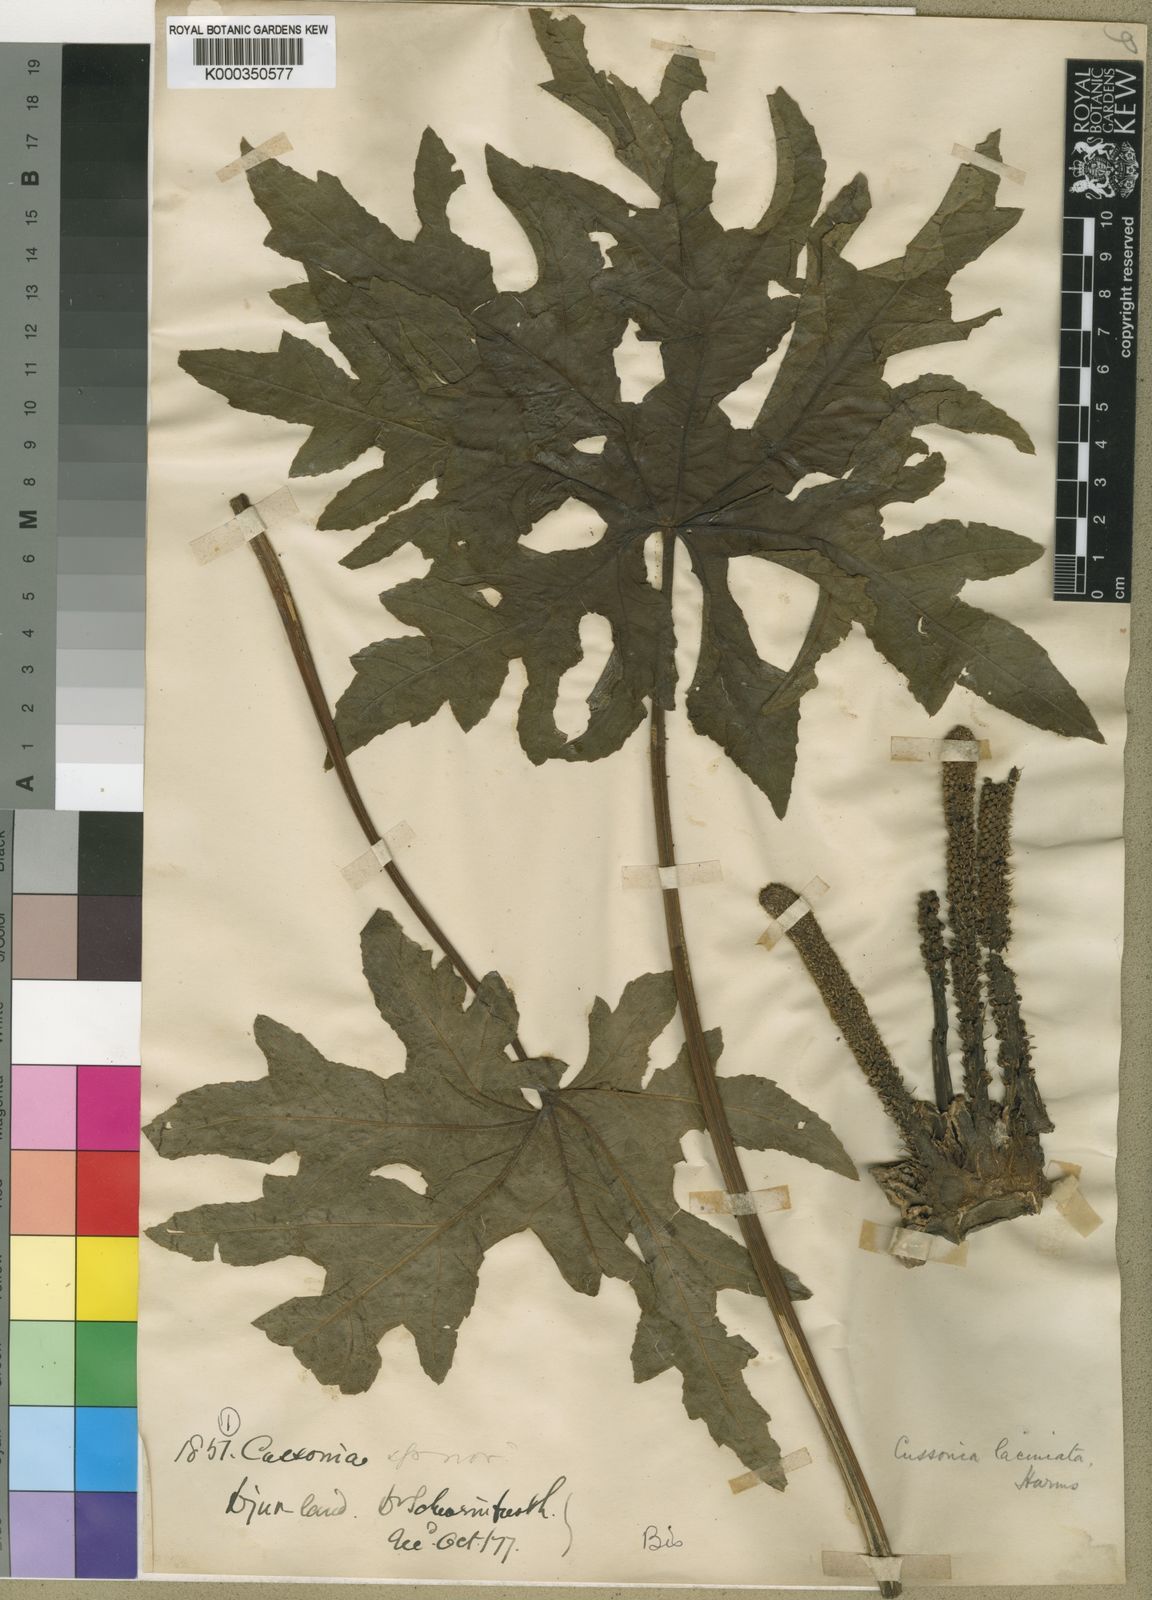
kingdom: Plantae
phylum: Tracheophyta
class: Magnoliopsida
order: Apiales
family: Araliaceae
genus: Cussonia
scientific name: Cussonia arborea
